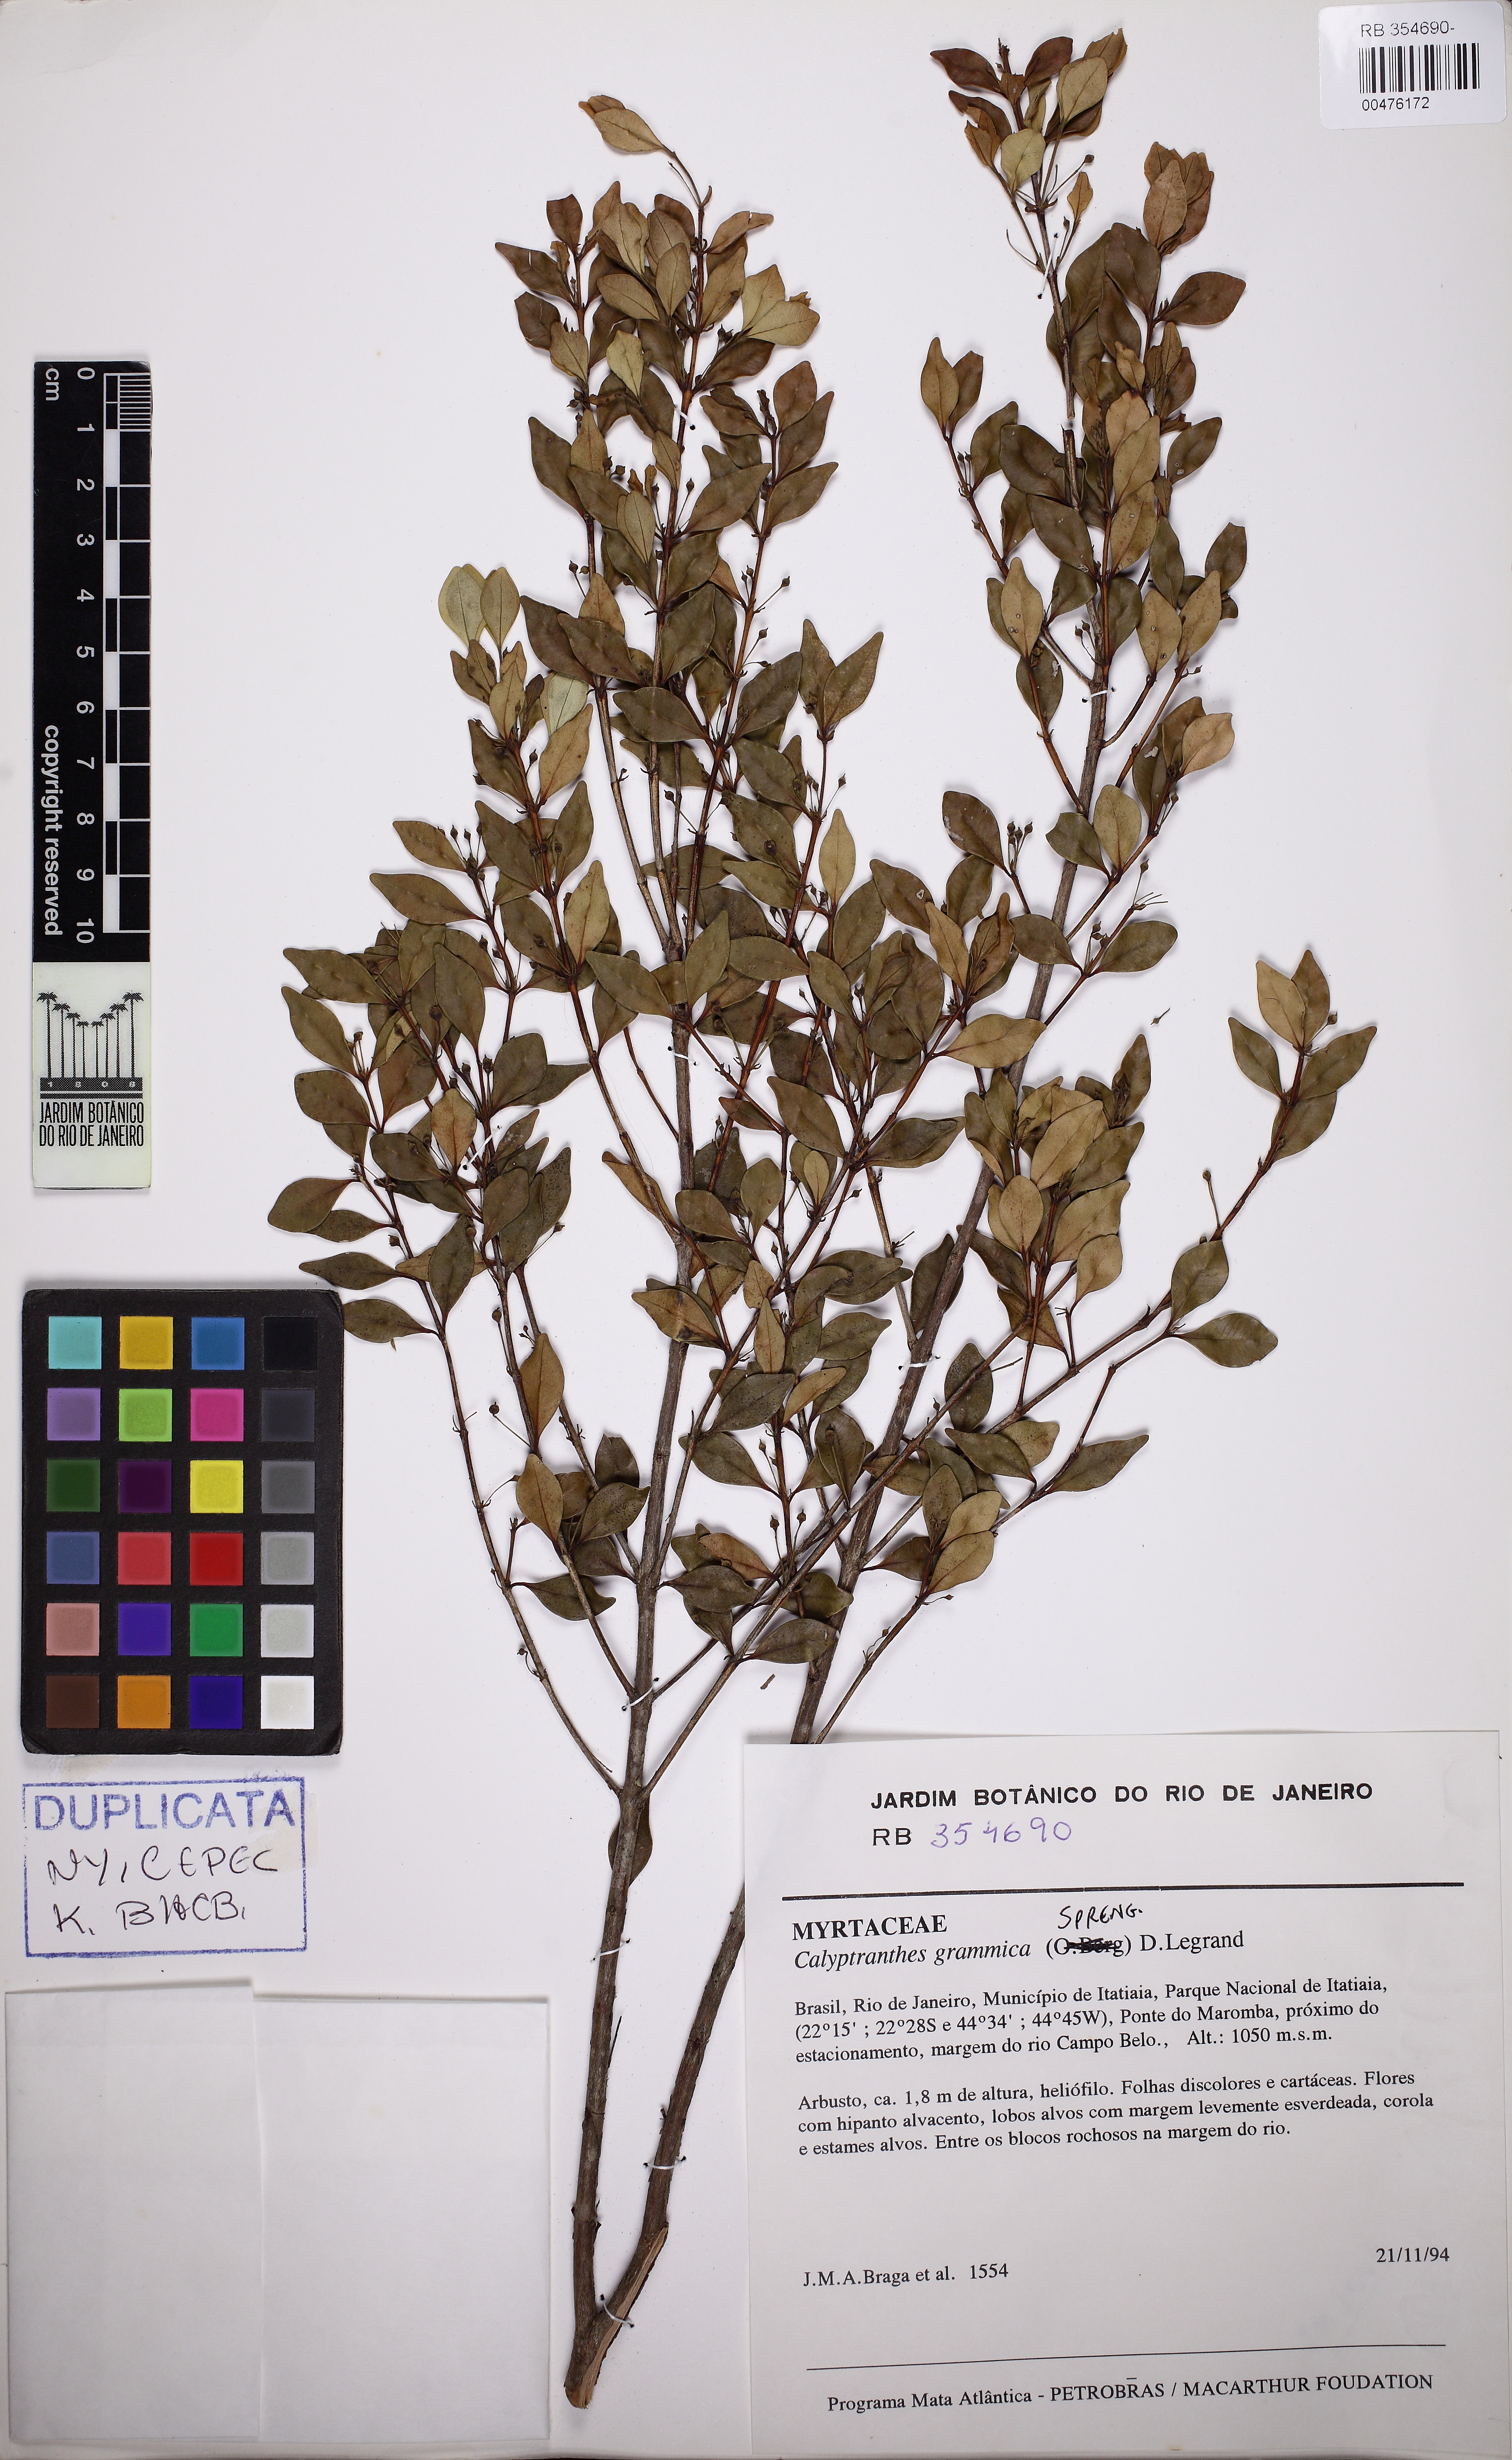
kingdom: Plantae
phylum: Tracheophyta
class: Magnoliopsida
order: Myrtales
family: Myrtaceae
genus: Myrcia
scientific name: Myrcia grammica
